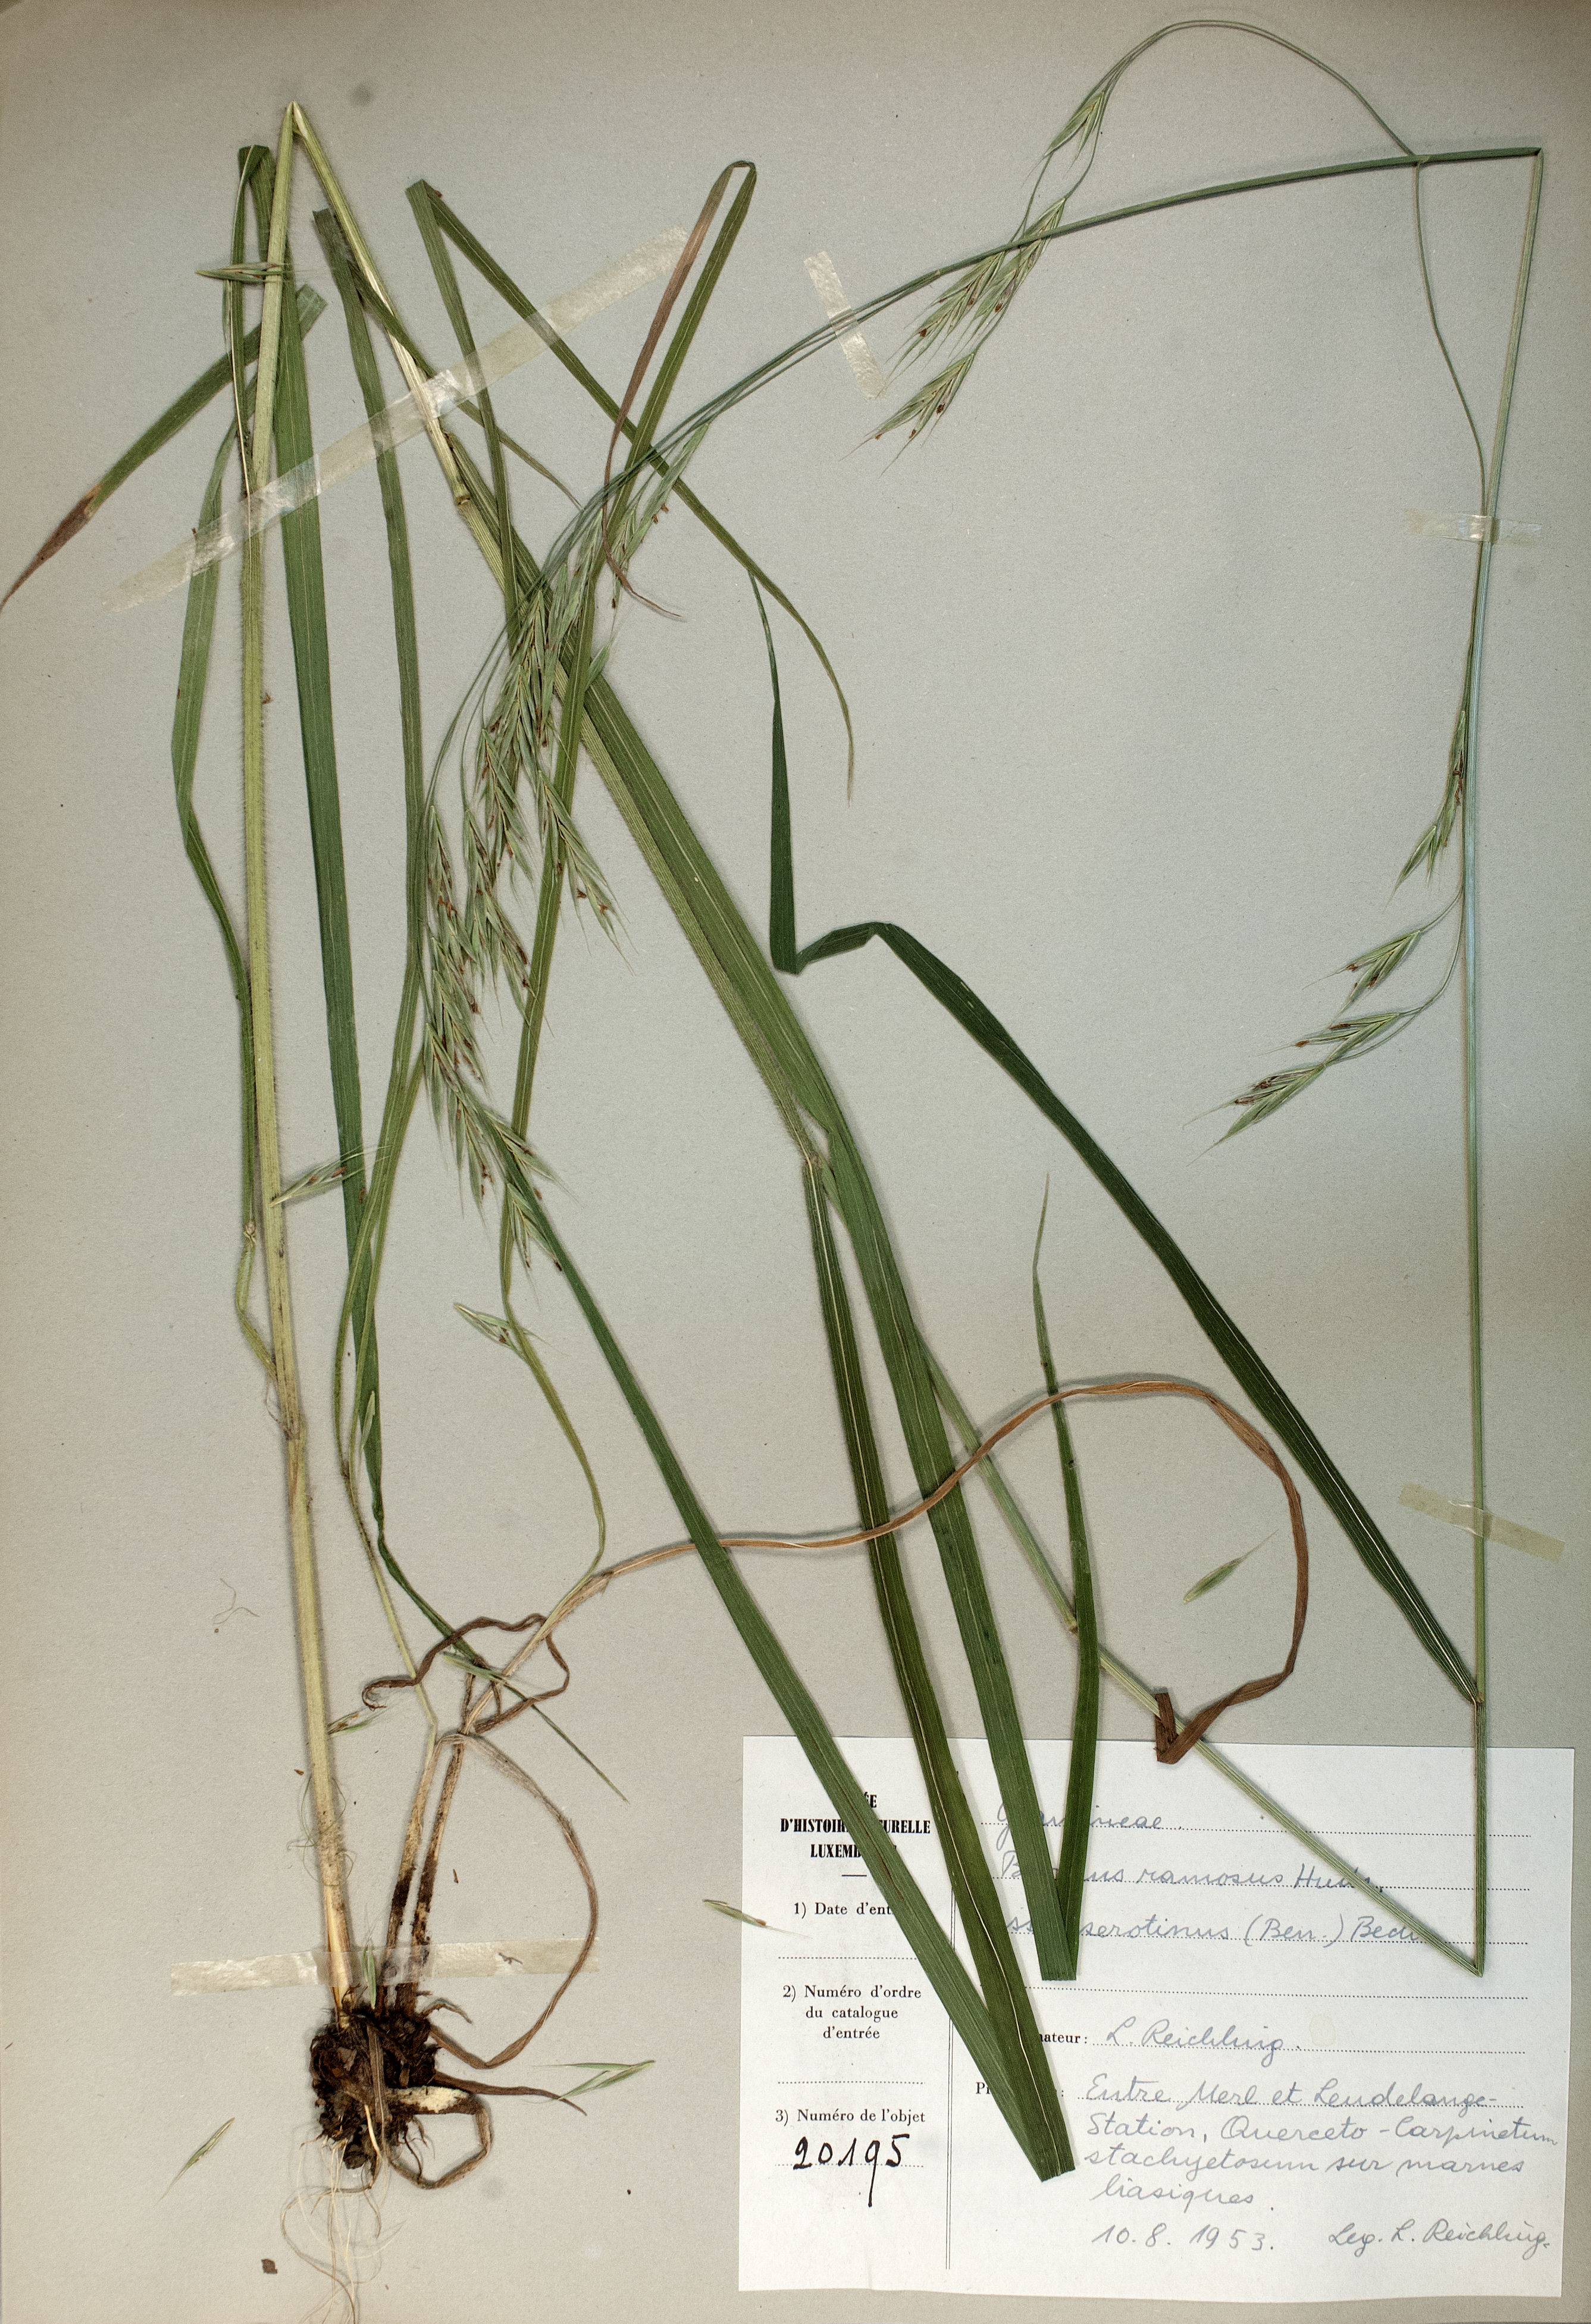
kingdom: Plantae
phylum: Tracheophyta
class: Liliopsida
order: Poales
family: Poaceae
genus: Bromus
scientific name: Bromus ramosus
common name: Hairy brome
